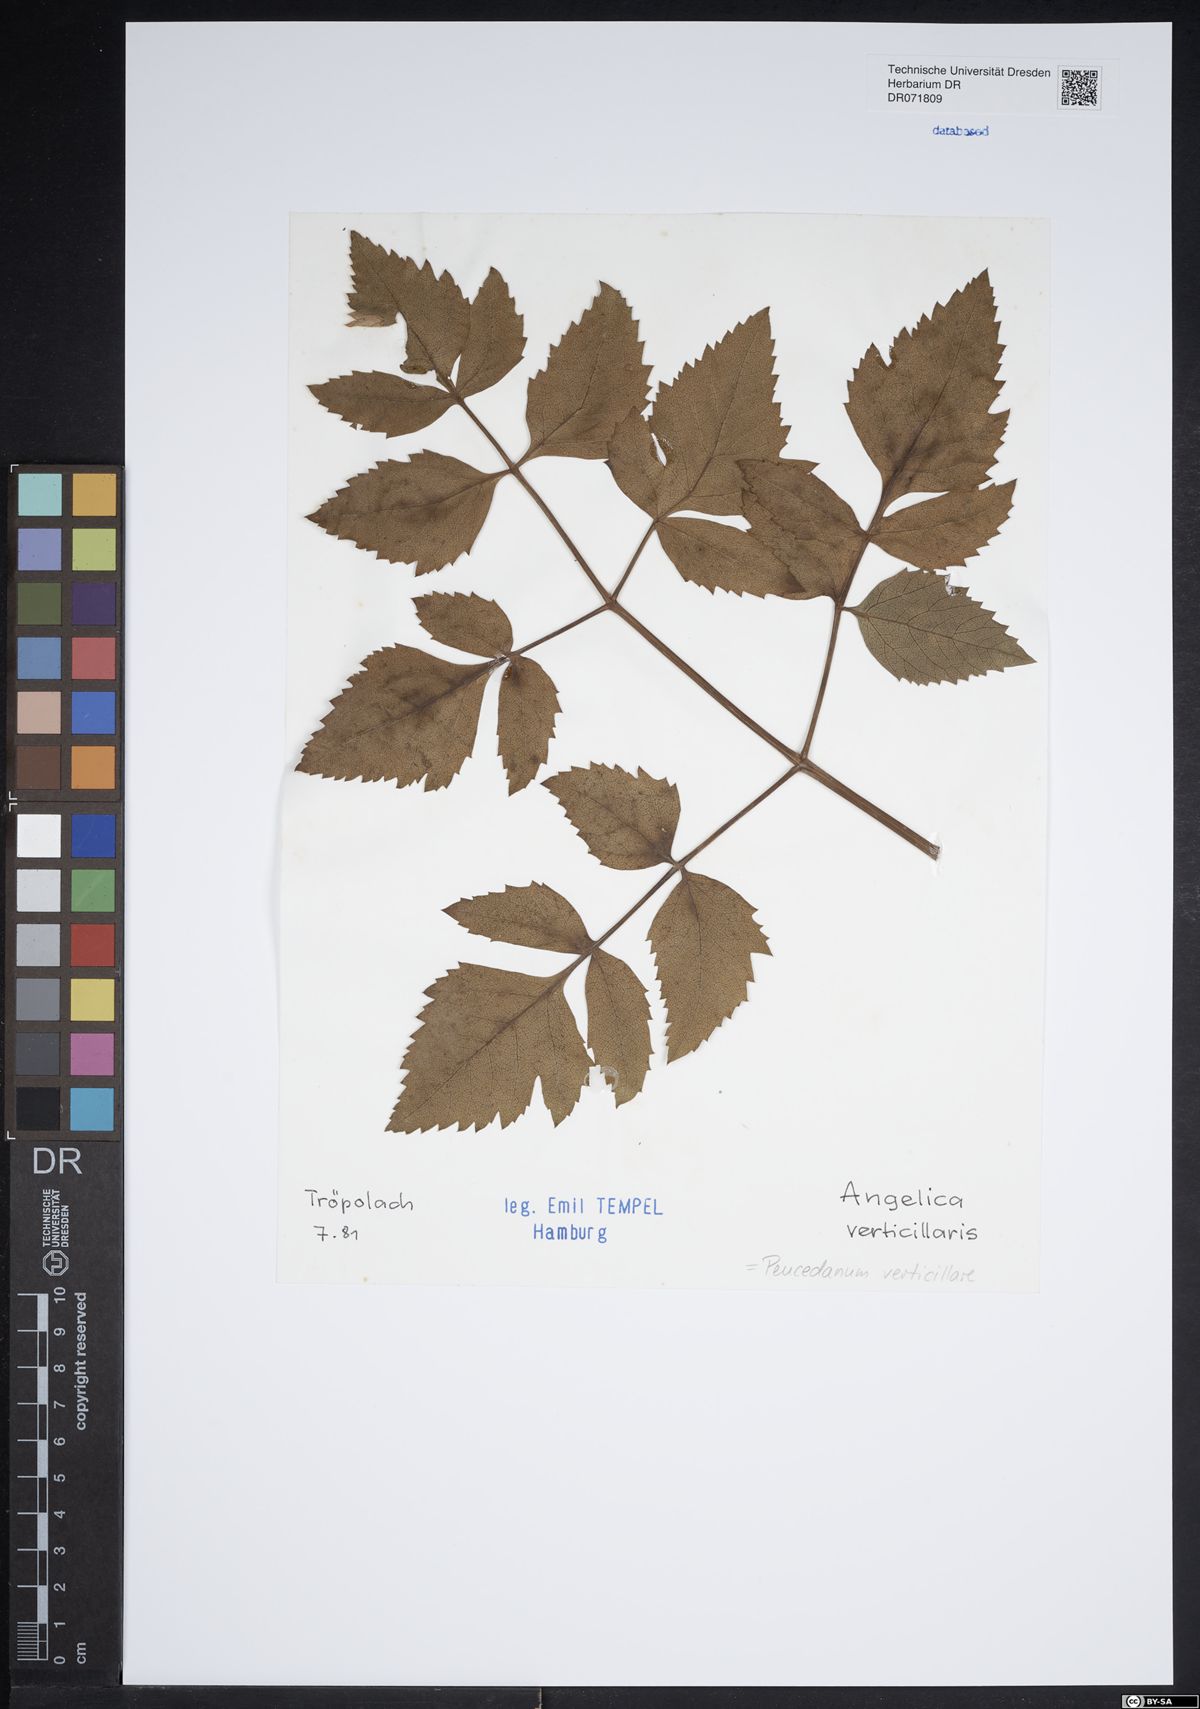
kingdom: Plantae
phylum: Tracheophyta
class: Magnoliopsida
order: Apiales
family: Apiaceae
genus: Tommasinia
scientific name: Tommasinia altissima
